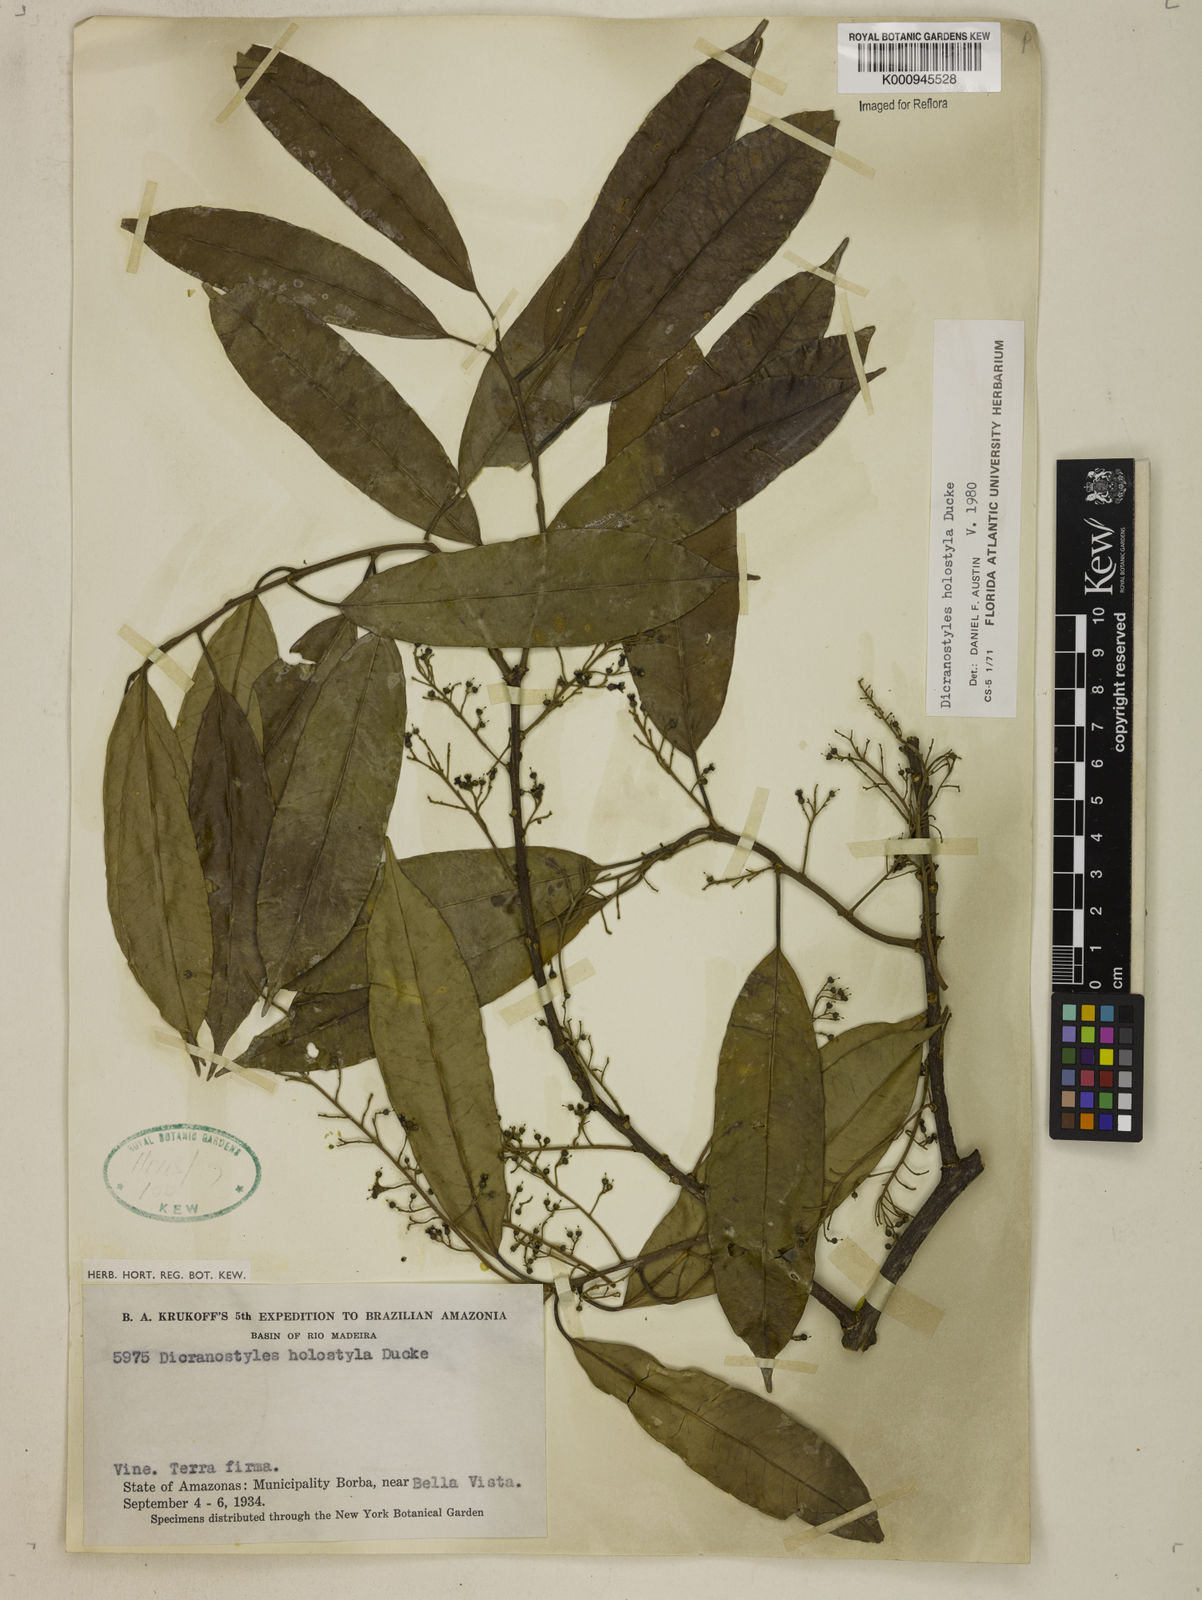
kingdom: Plantae
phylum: Tracheophyta
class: Magnoliopsida
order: Solanales
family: Convolvulaceae
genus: Dicranostyles
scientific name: Dicranostyles holostyla
